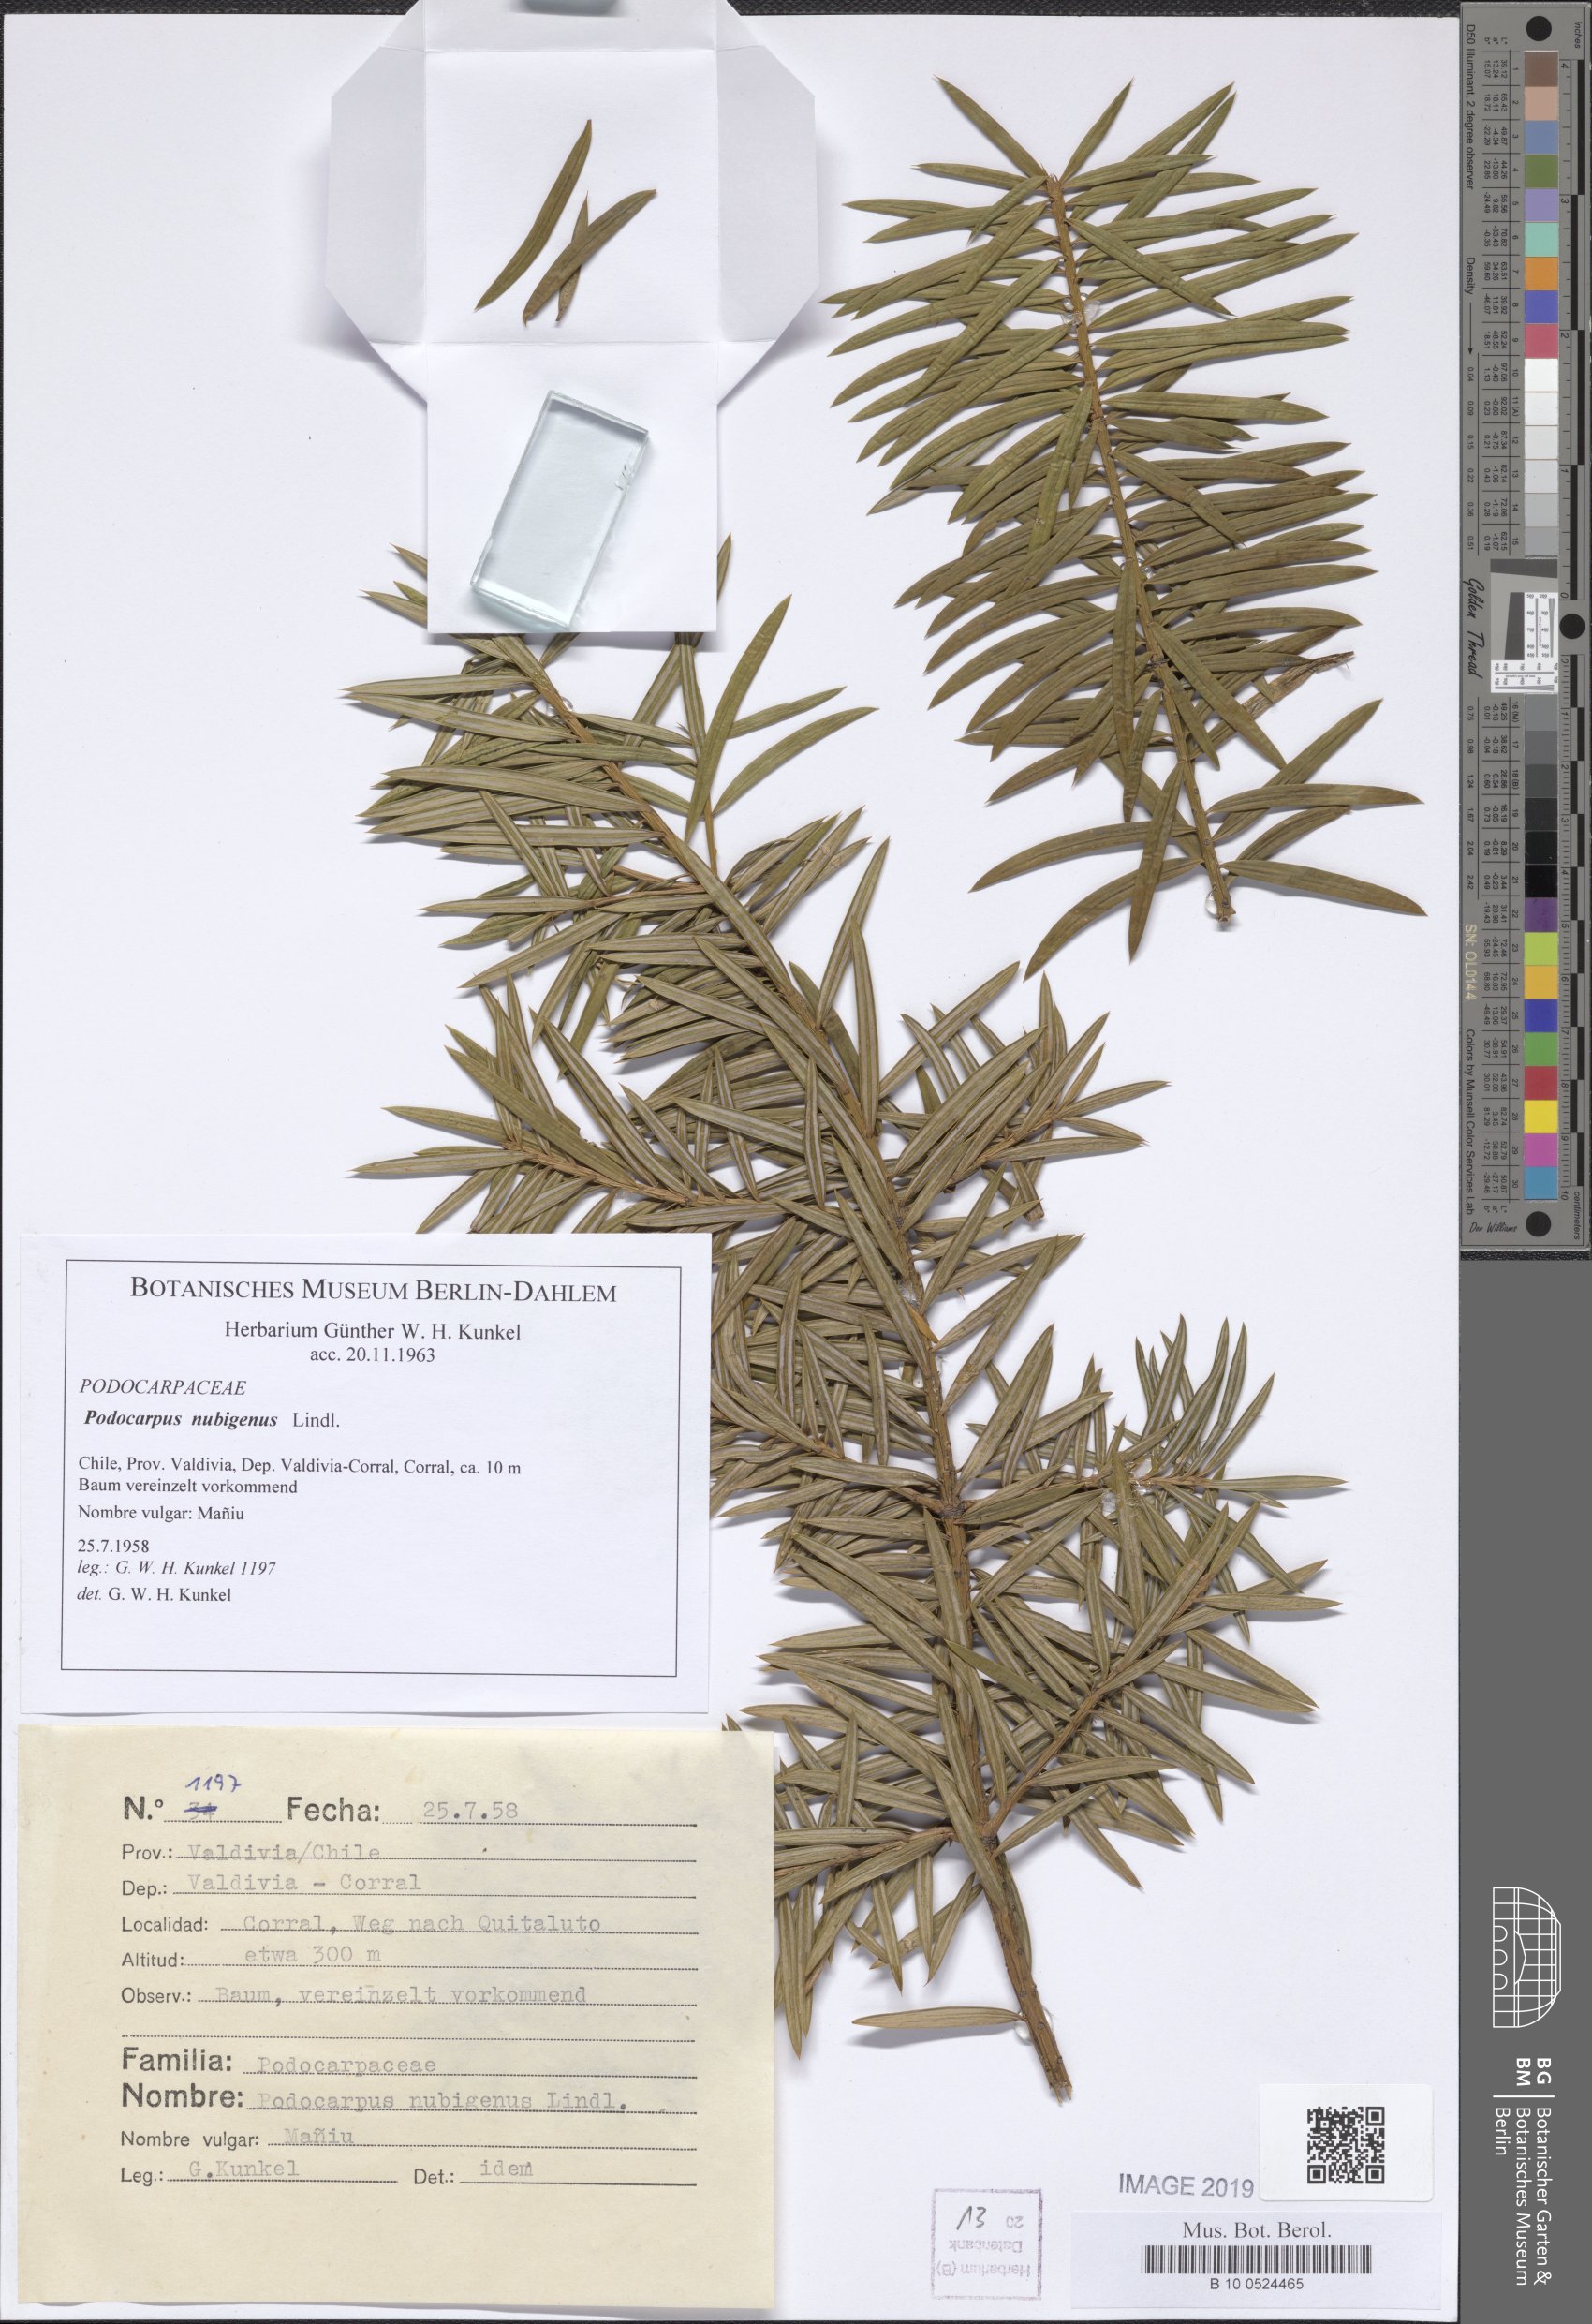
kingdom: Plantae
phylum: Tracheophyta
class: Pinopsida
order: Pinales
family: Podocarpaceae
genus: Podocarpus
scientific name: Podocarpus nubigenus
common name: Cloud podocarp
